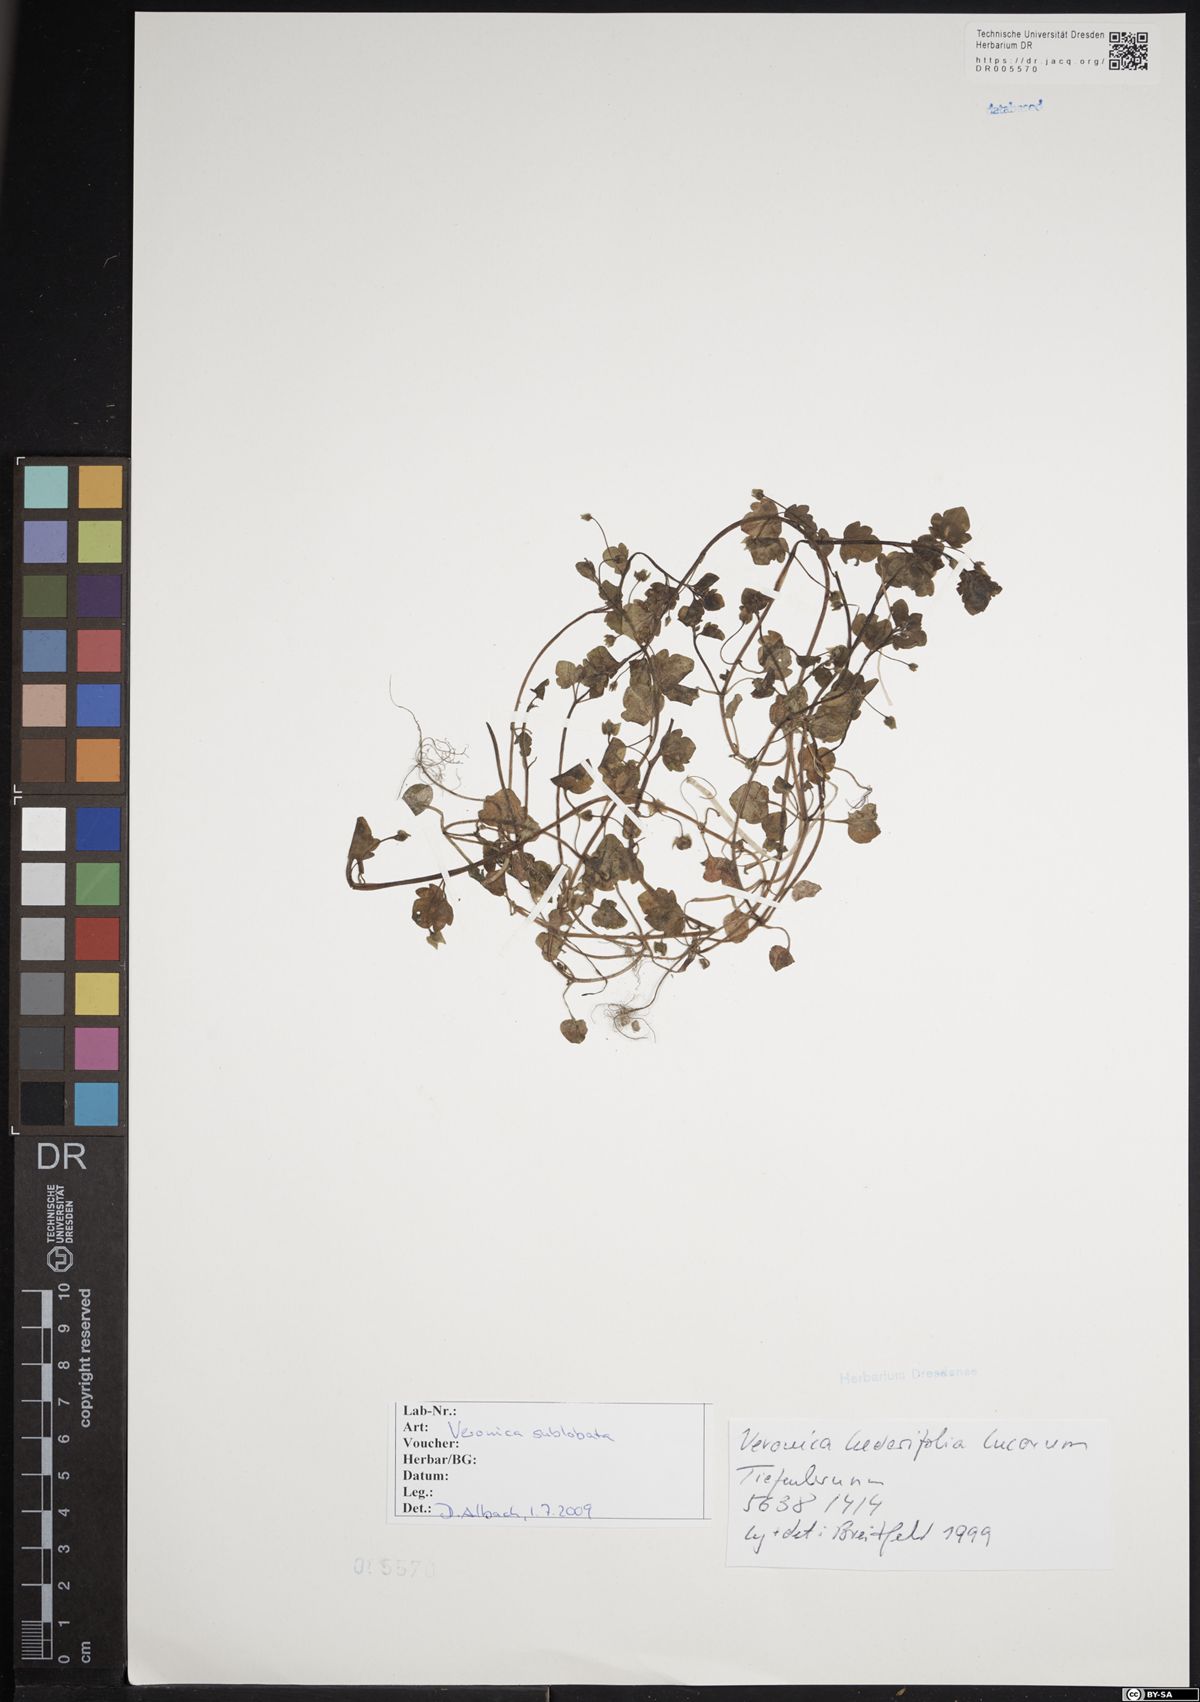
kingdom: Plantae
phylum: Tracheophyta
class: Magnoliopsida
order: Lamiales
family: Plantaginaceae
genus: Veronica
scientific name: Veronica sublobata
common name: False ivy-leaved speedwell
